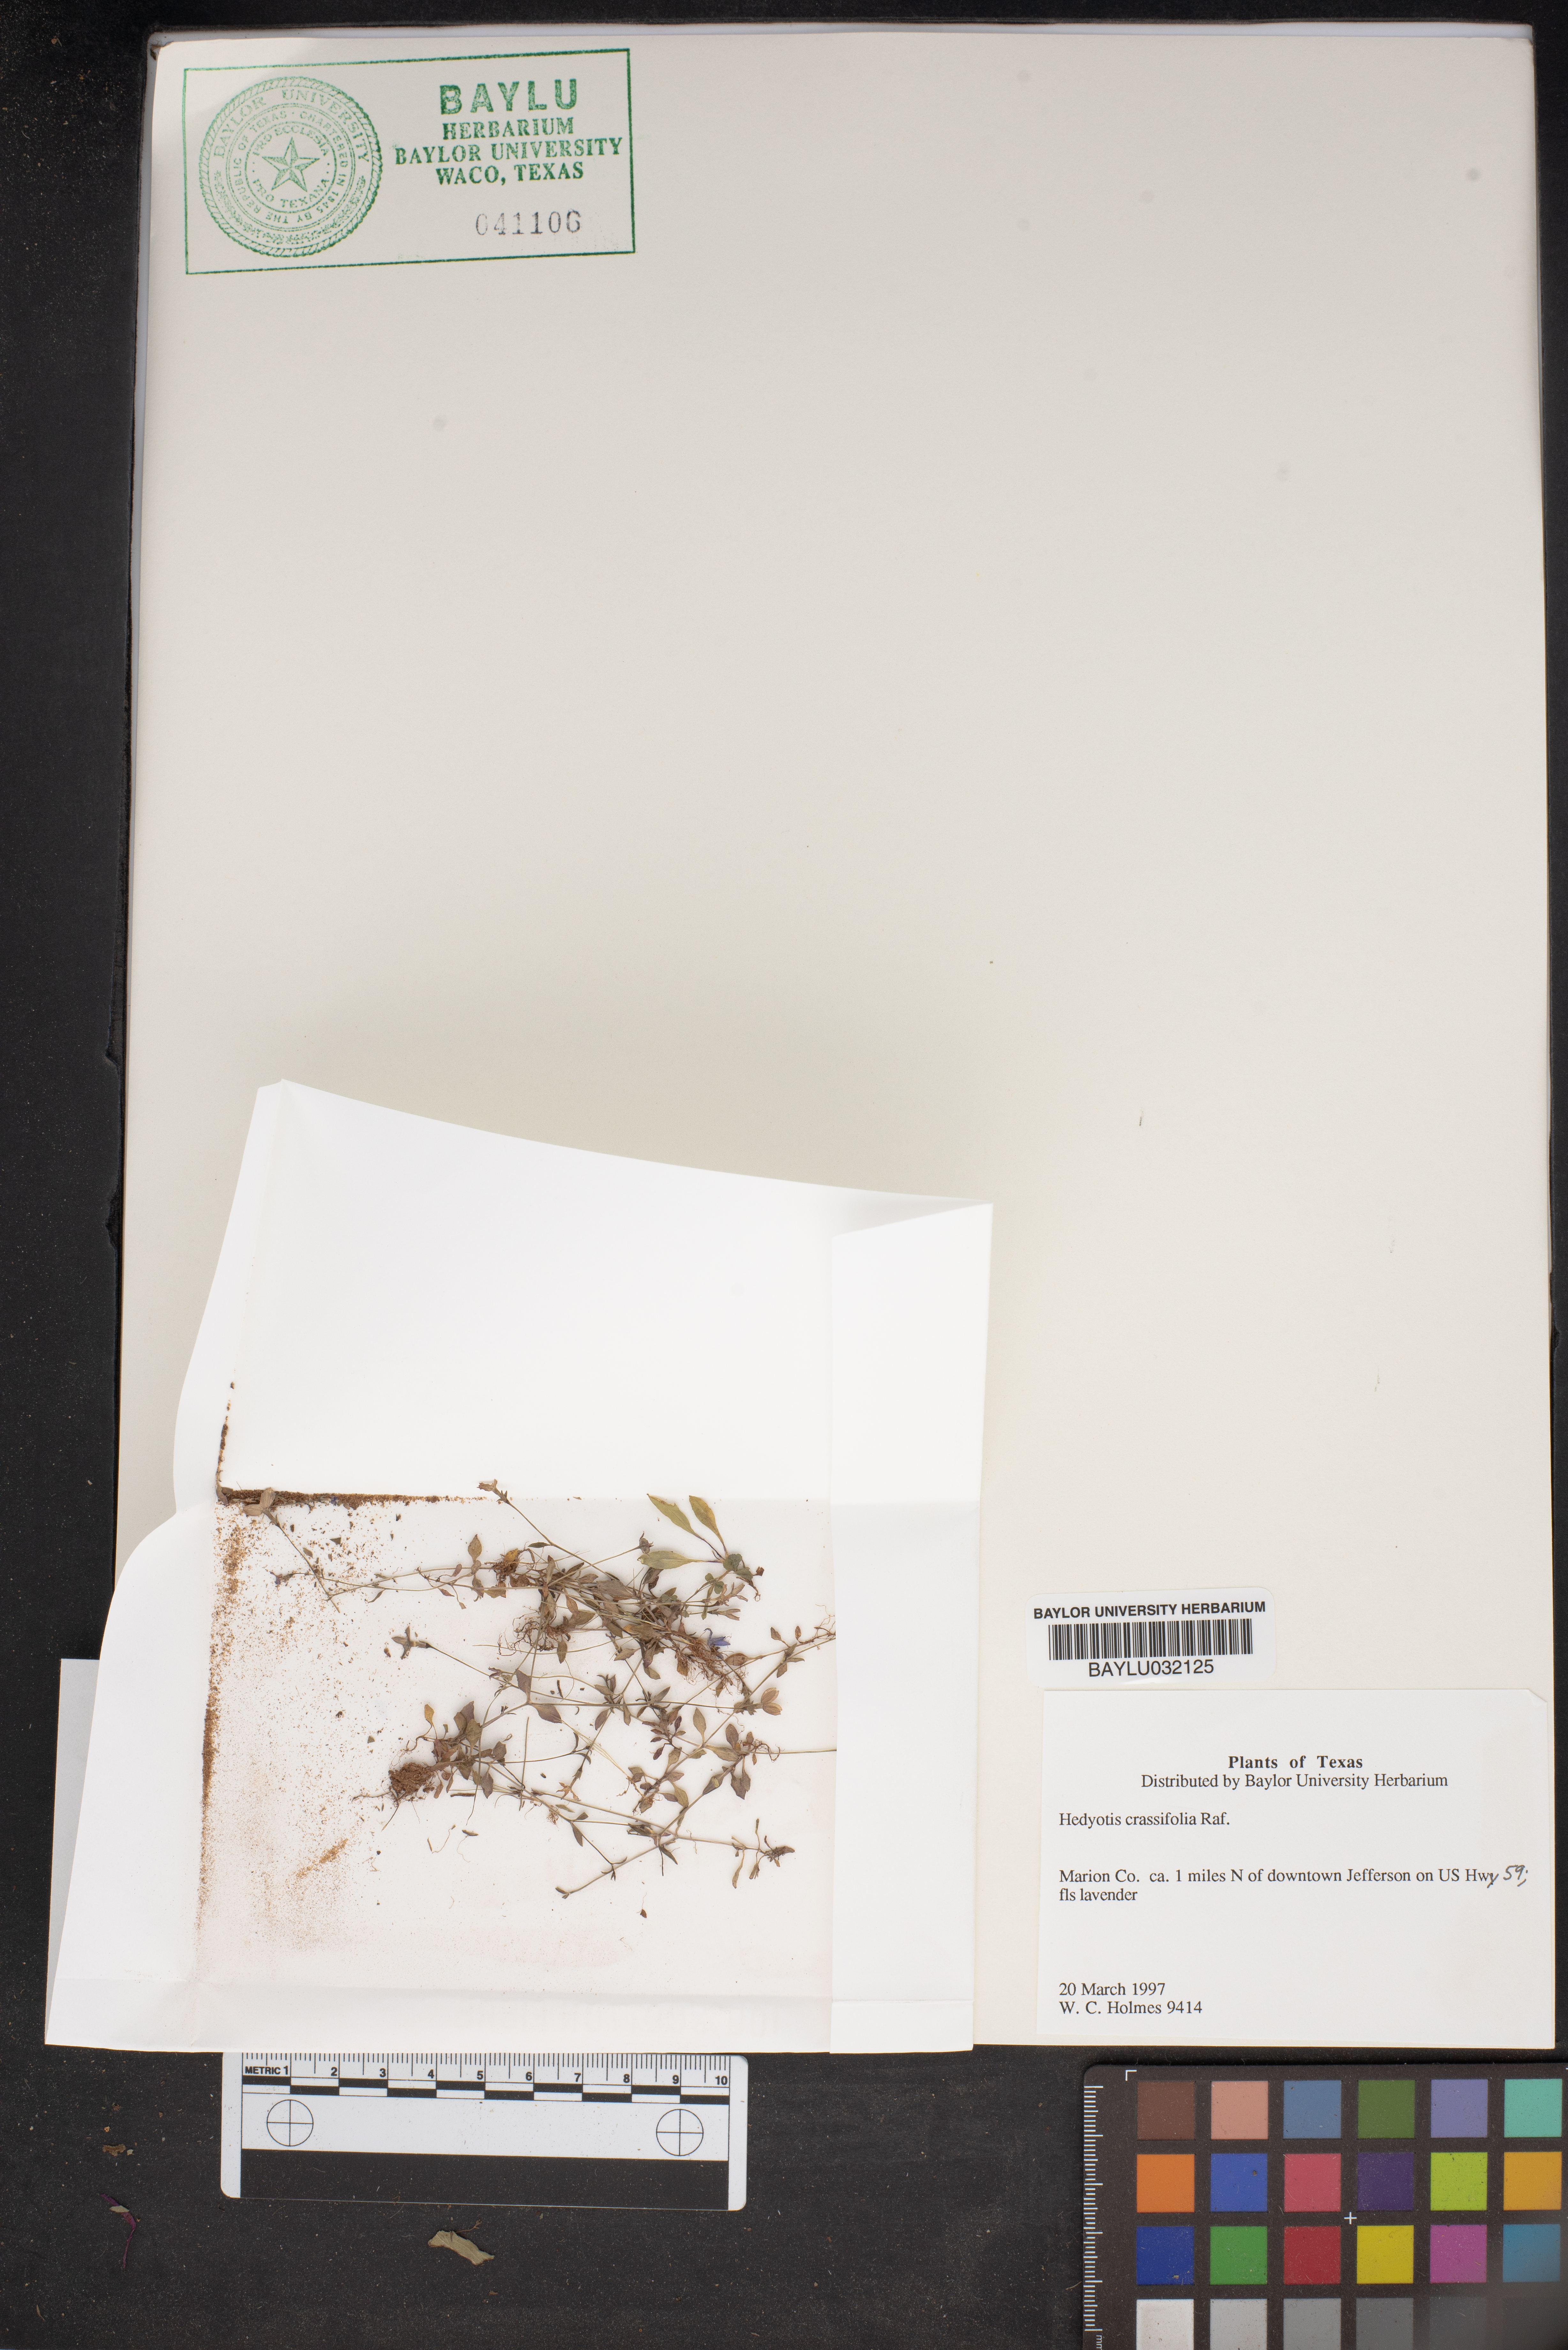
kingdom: Plantae
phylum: Tracheophyta
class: Magnoliopsida
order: Gentianales
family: Rubiaceae
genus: Houstonia
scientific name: Houstonia pusilla
